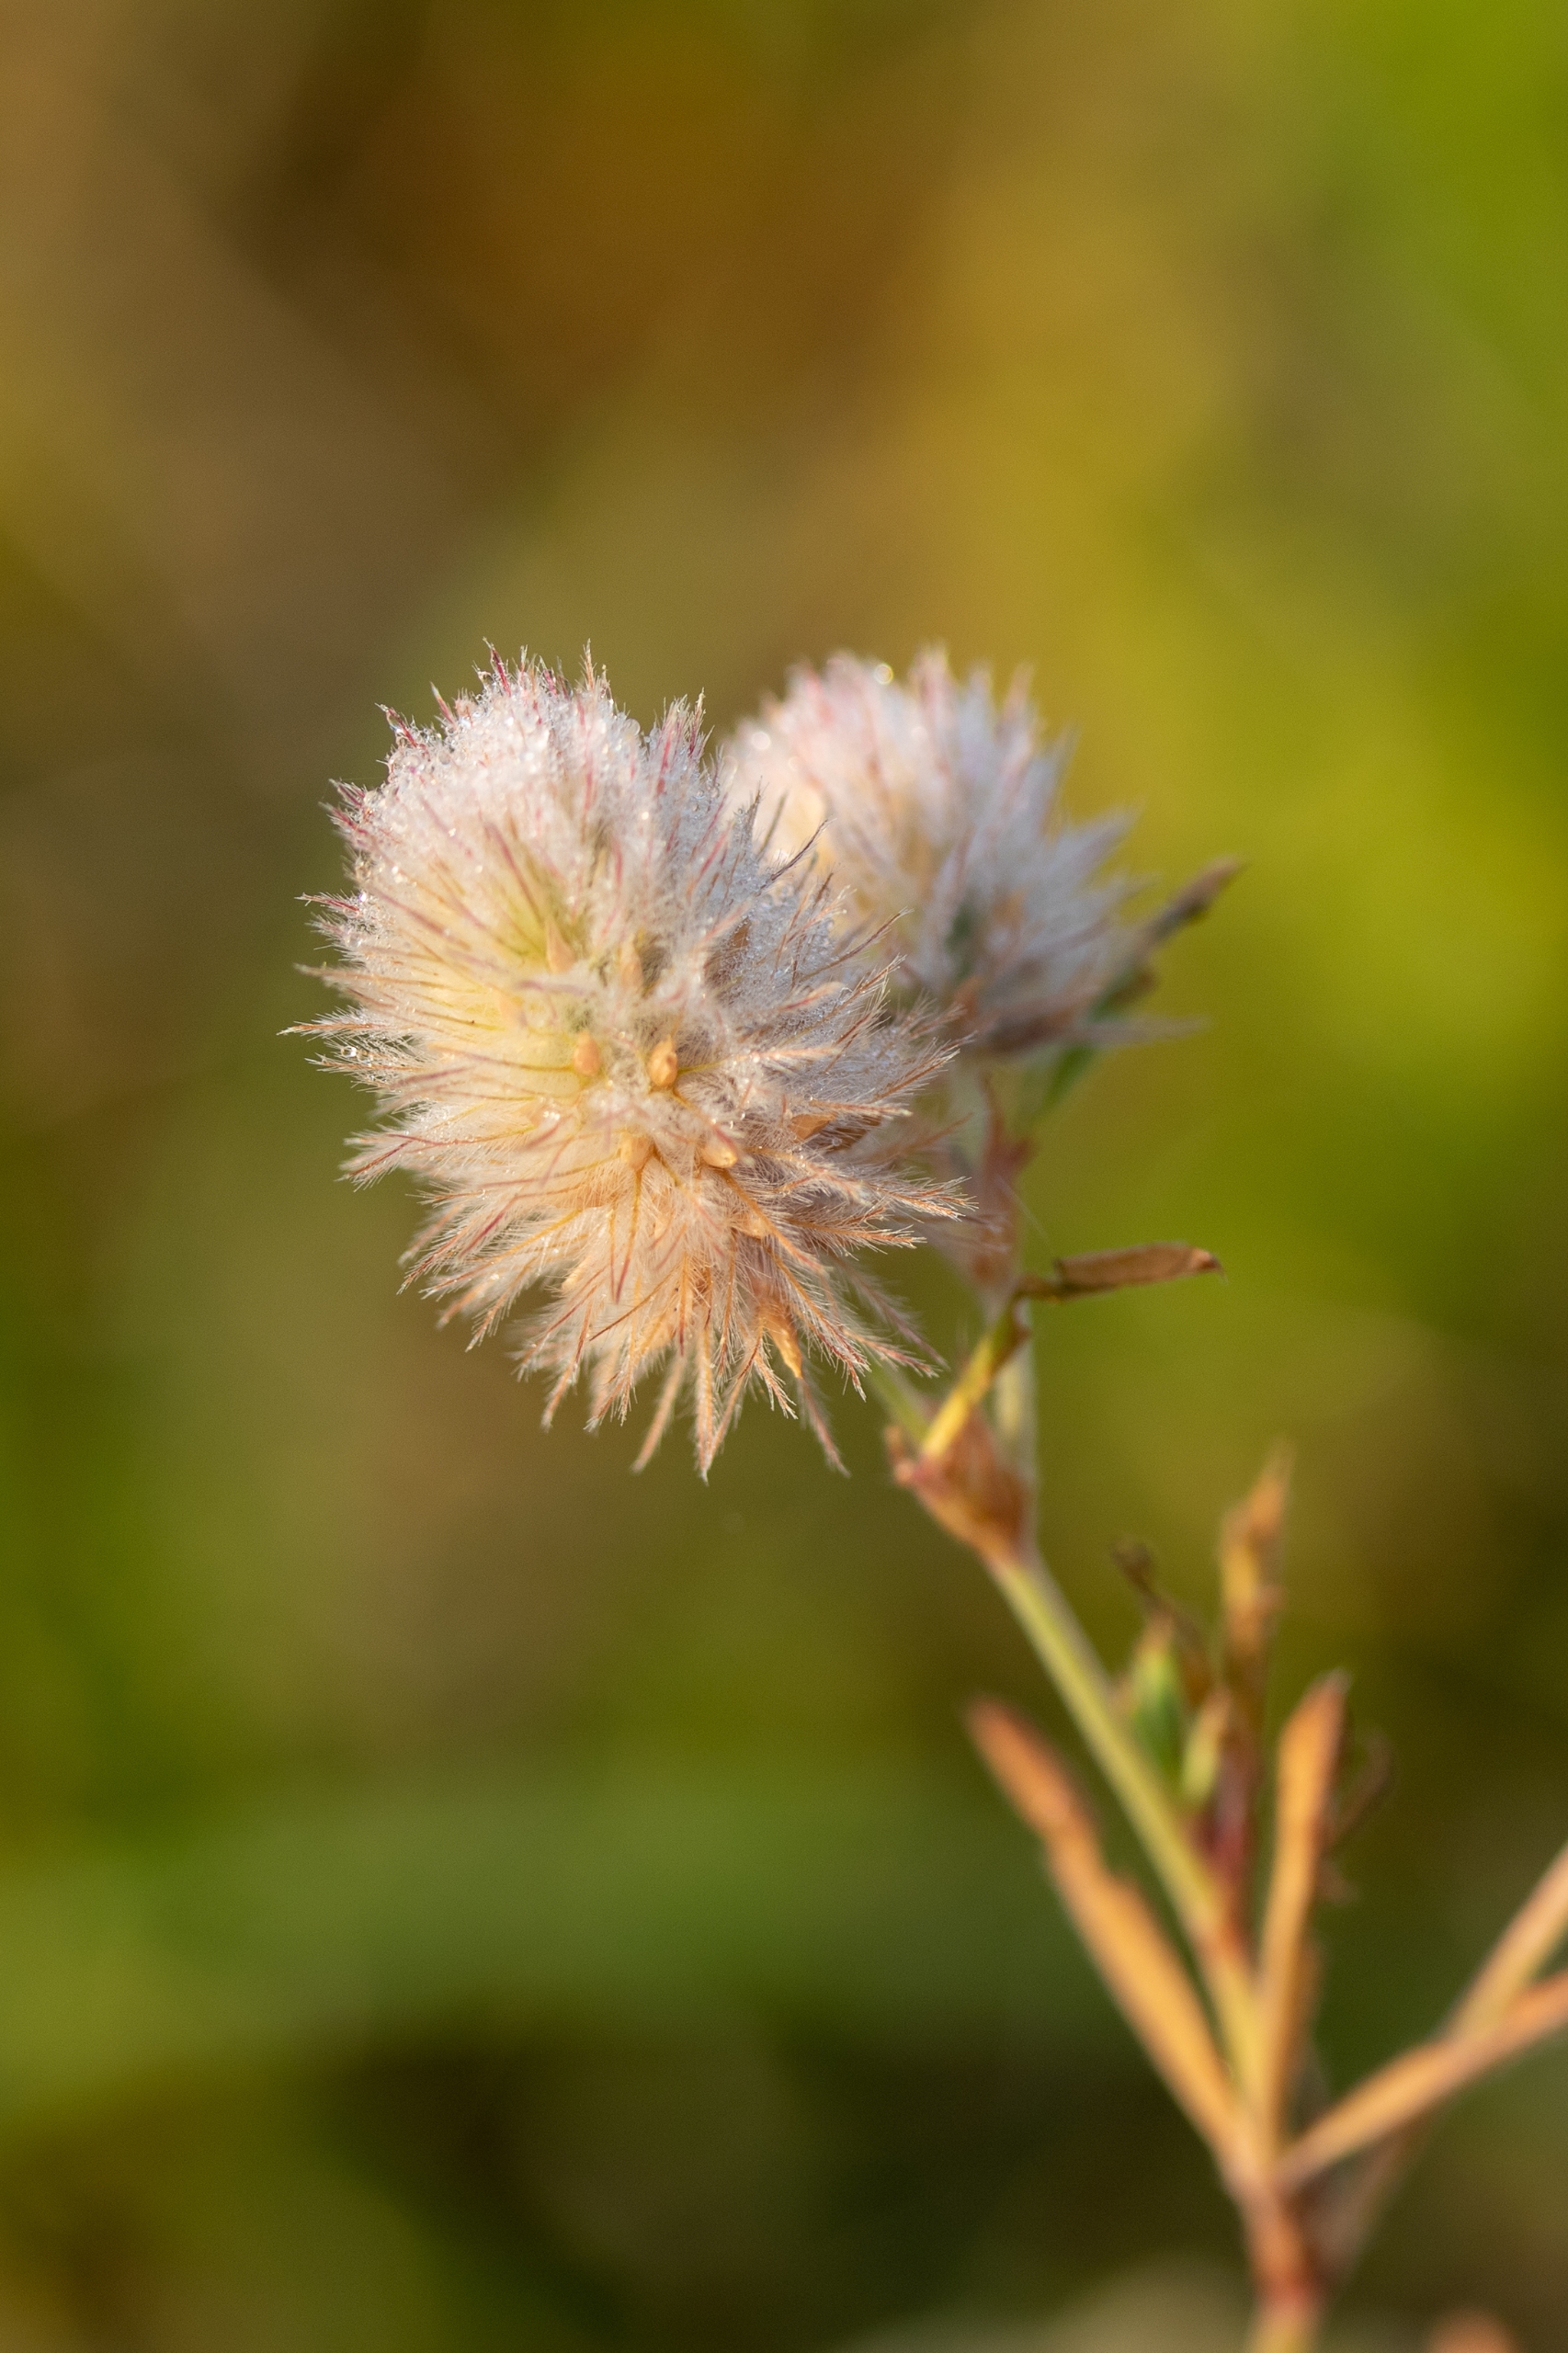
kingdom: Plantae
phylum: Tracheophyta
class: Magnoliopsida
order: Fabales
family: Fabaceae
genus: Trifolium
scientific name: Trifolium arvense
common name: Hare-kløver
